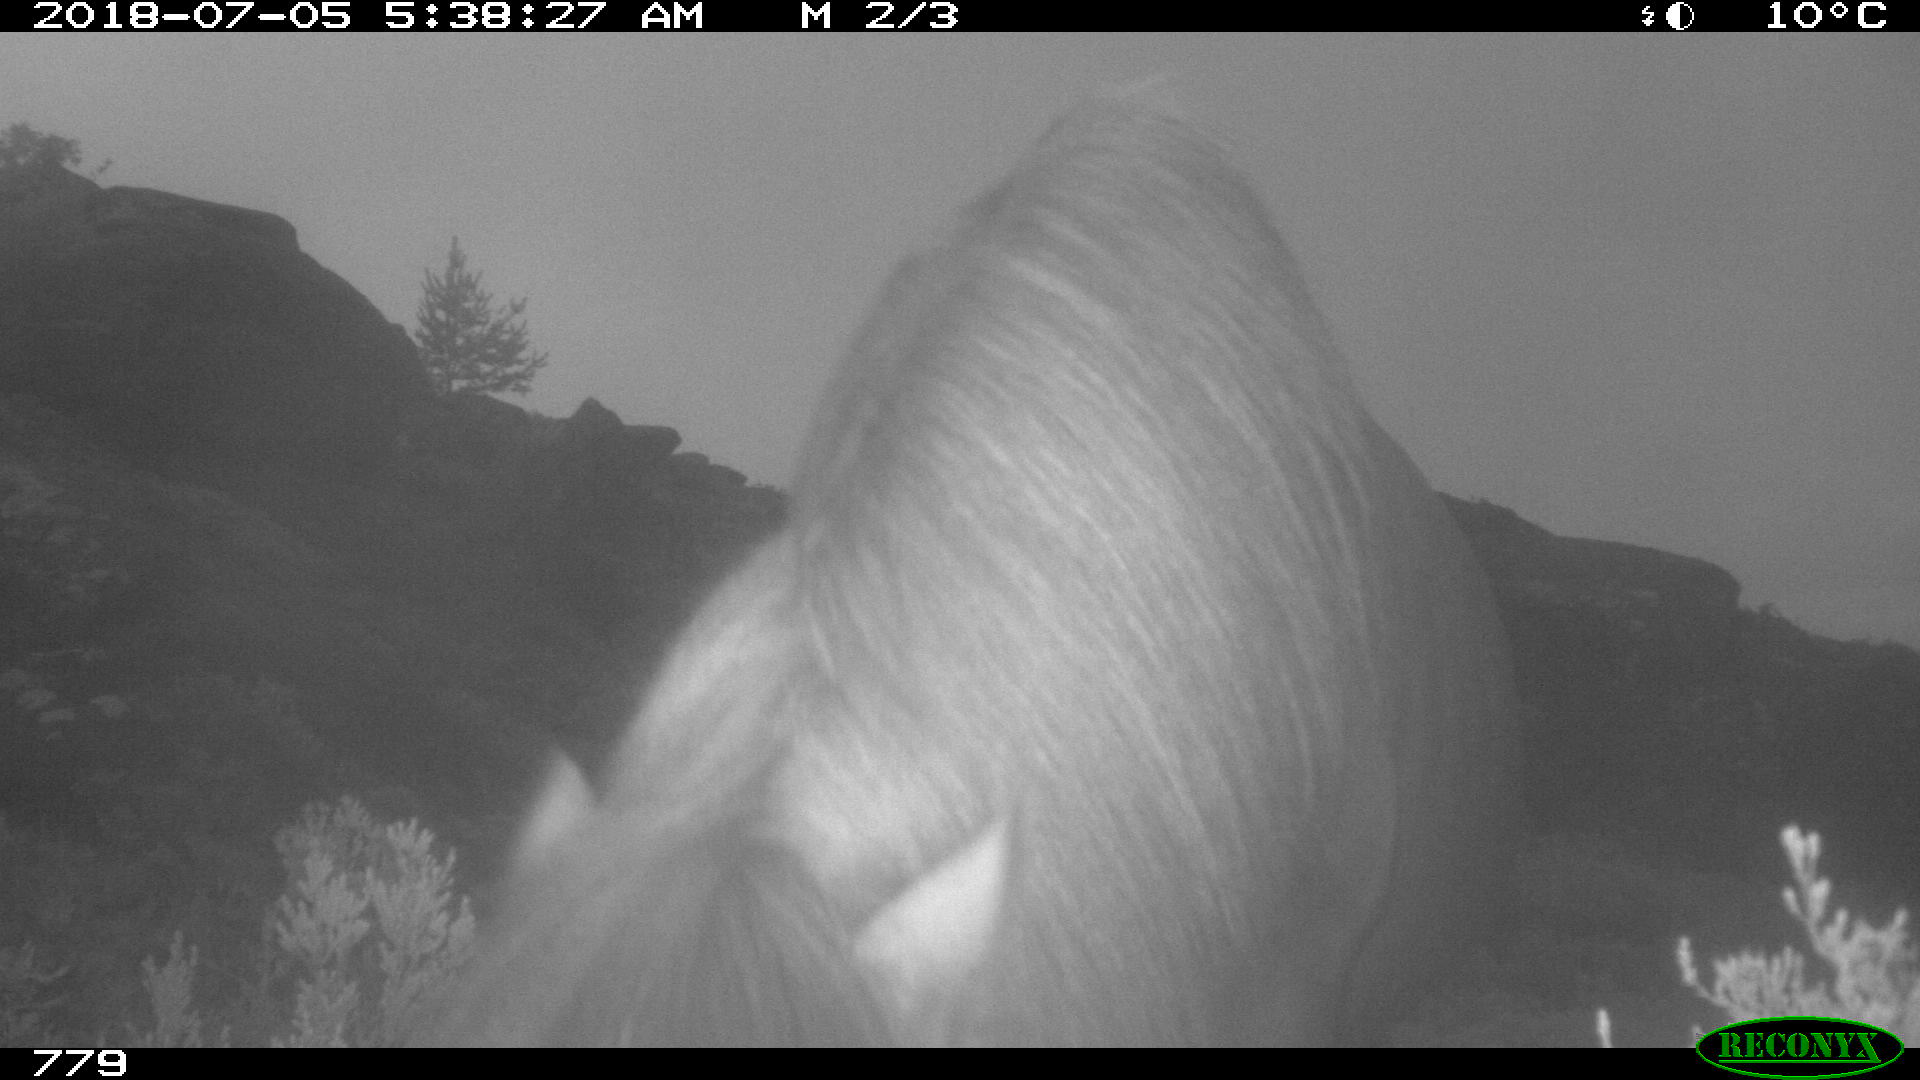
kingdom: Animalia
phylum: Chordata
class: Mammalia
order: Perissodactyla
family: Equidae
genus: Equus
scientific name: Equus caballus
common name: Horse
